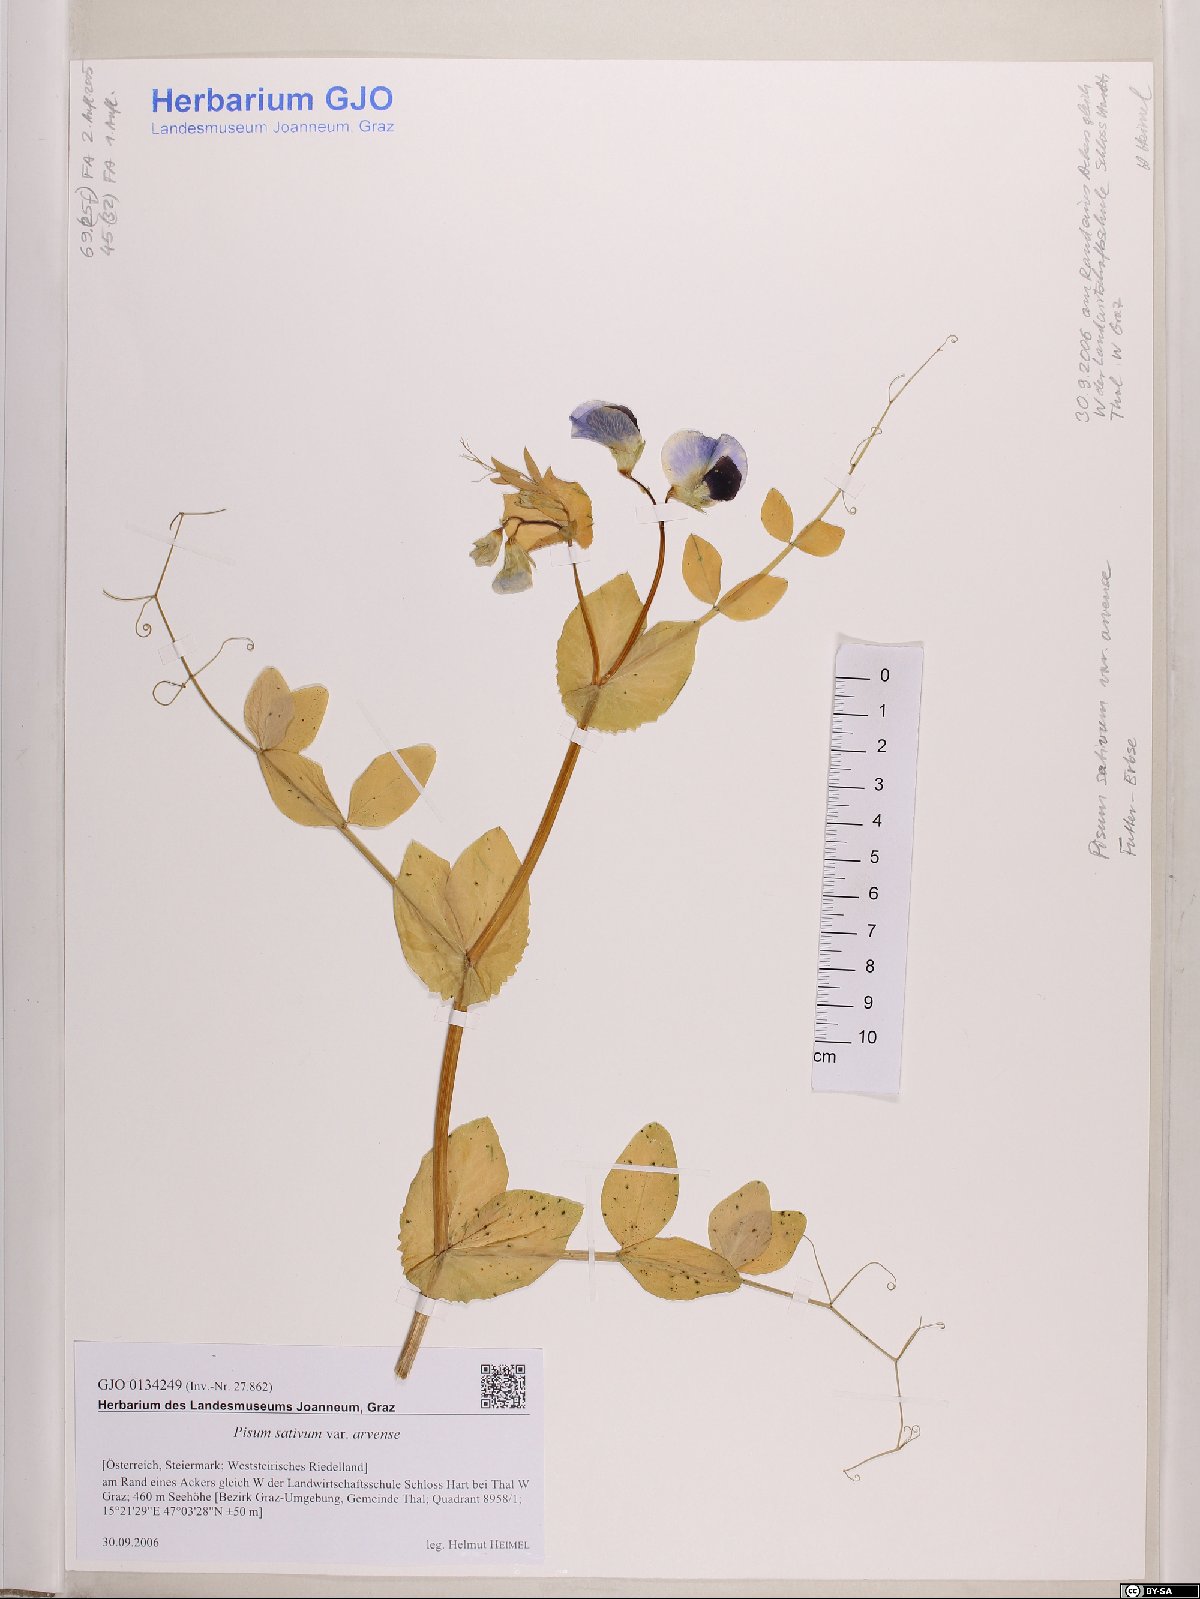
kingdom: Plantae
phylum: Tracheophyta
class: Magnoliopsida
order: Fabales
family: Fabaceae
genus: Lathyrus
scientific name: Lathyrus oleraceus
